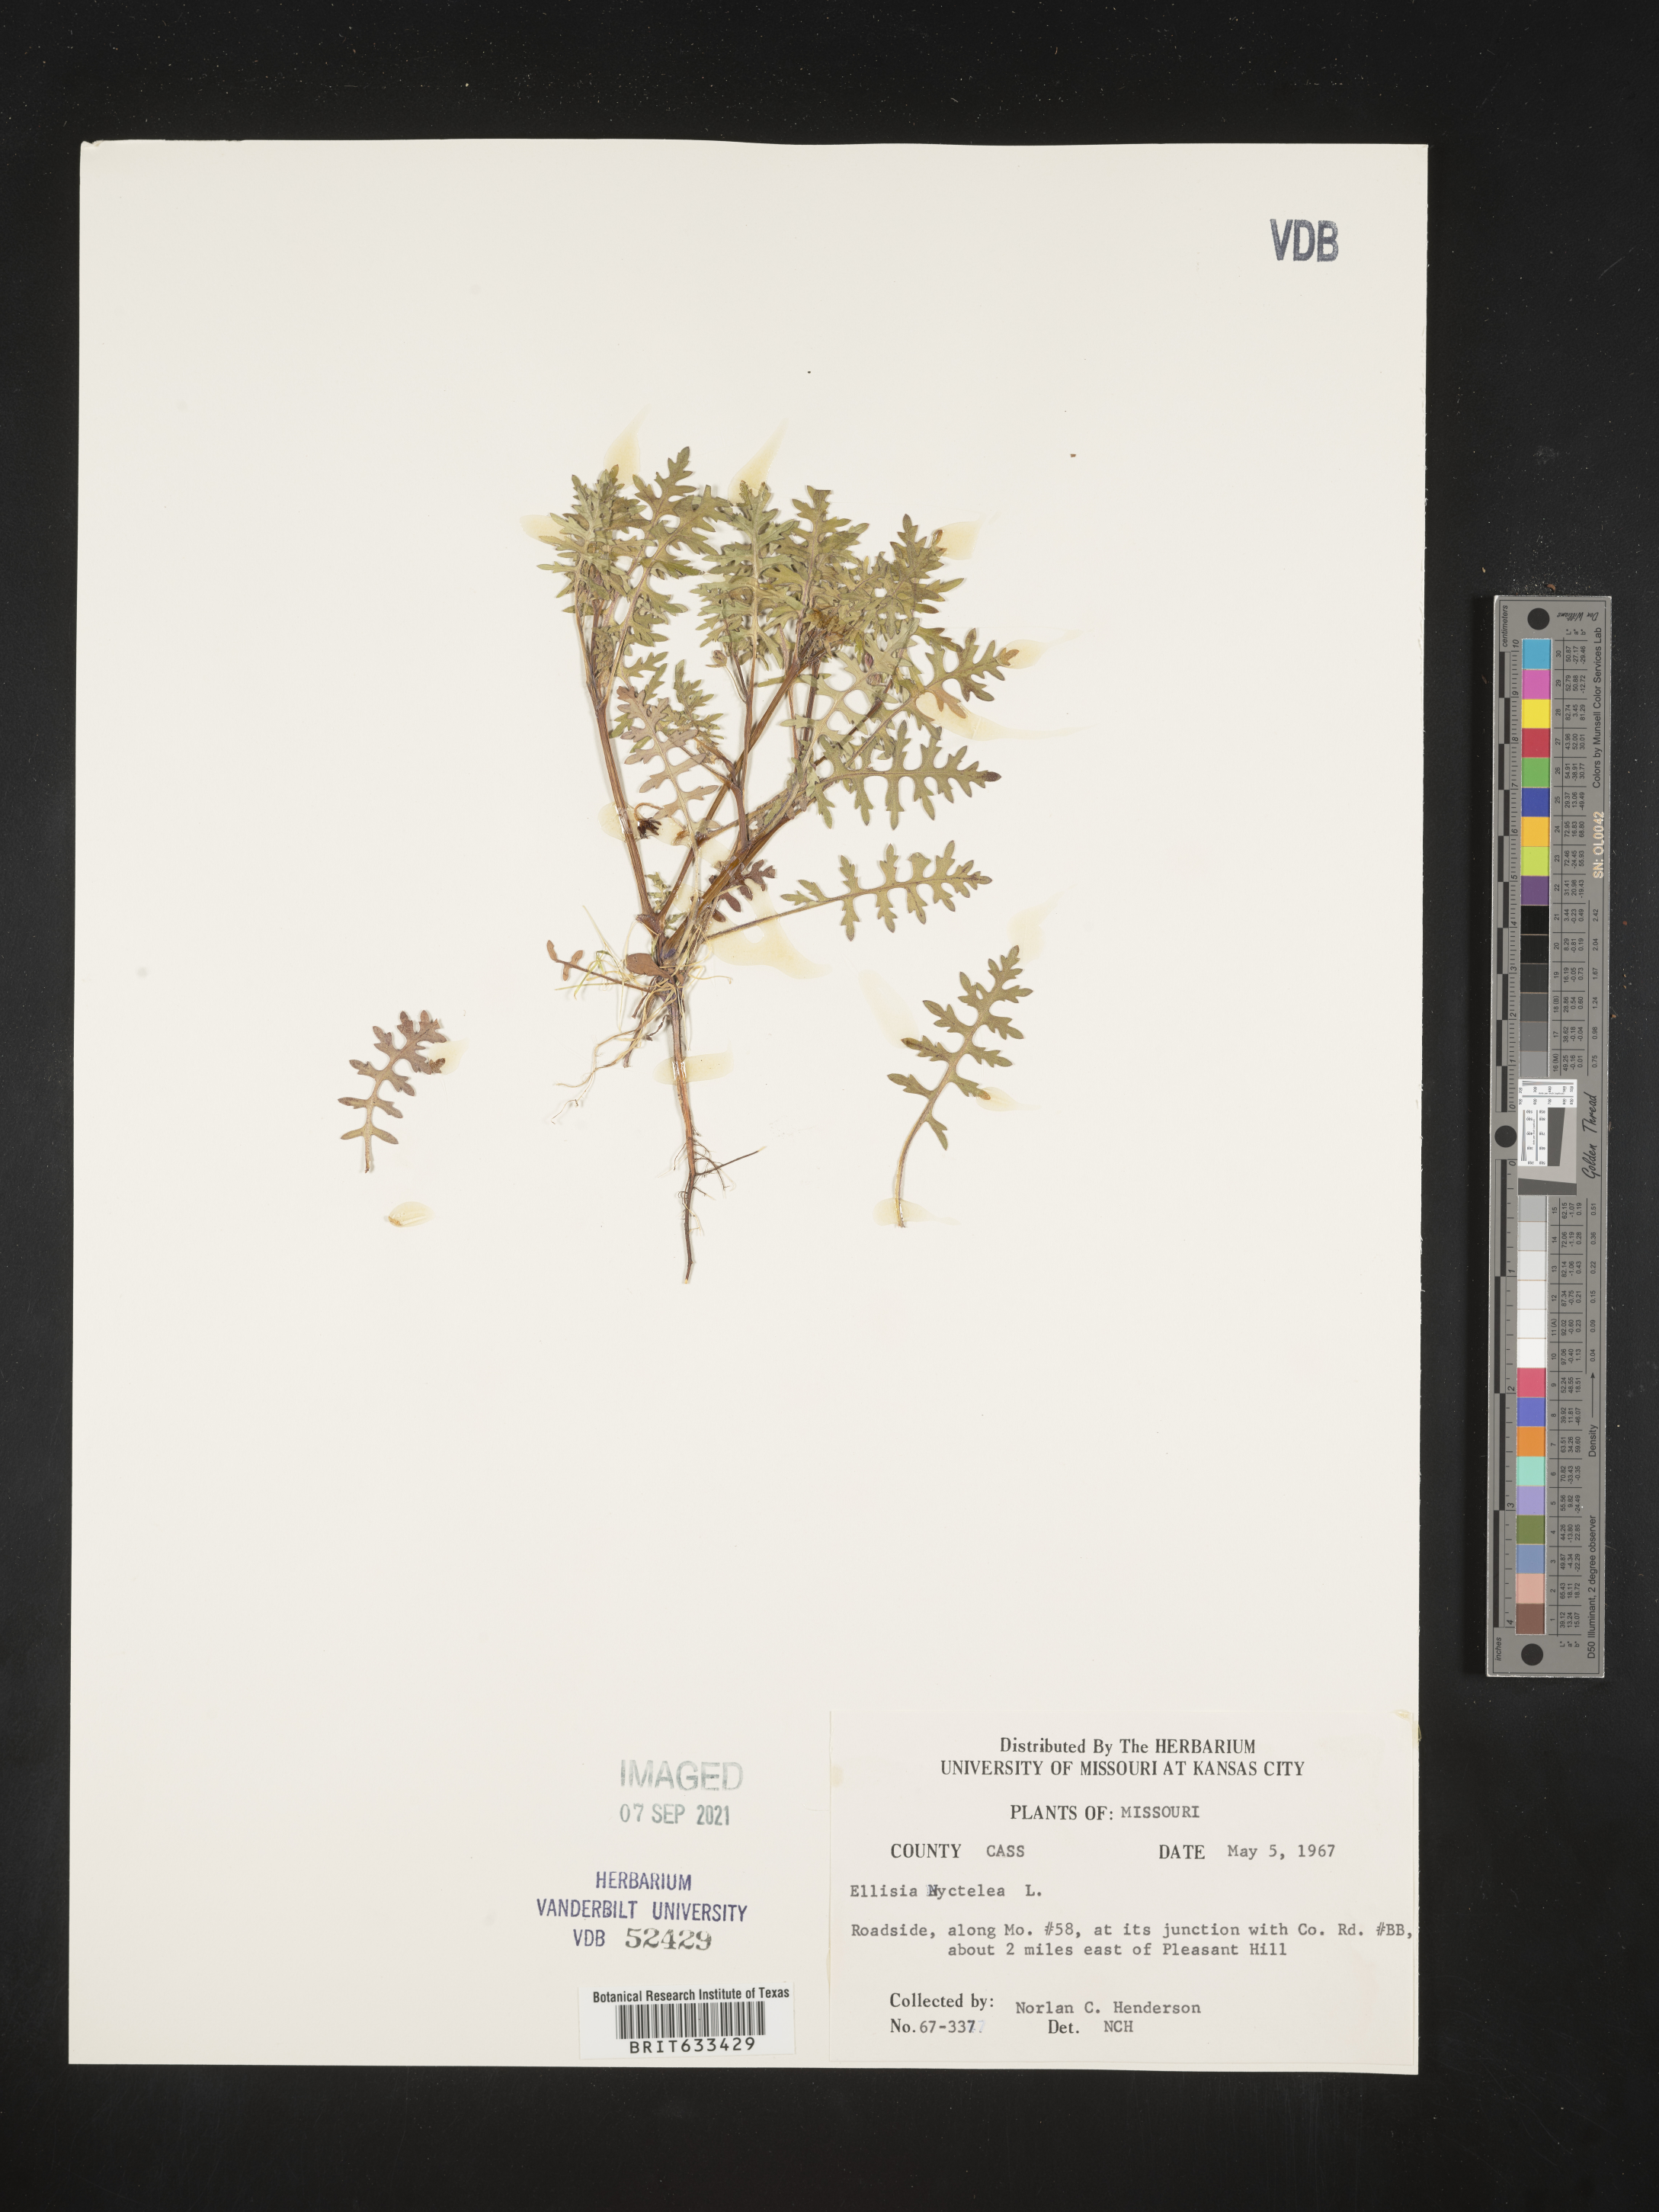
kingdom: Plantae
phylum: Tracheophyta
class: Magnoliopsida
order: Boraginales
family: Hydrophyllaceae
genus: Ellisia
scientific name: Ellisia nyctelea
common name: Aunt lucy
